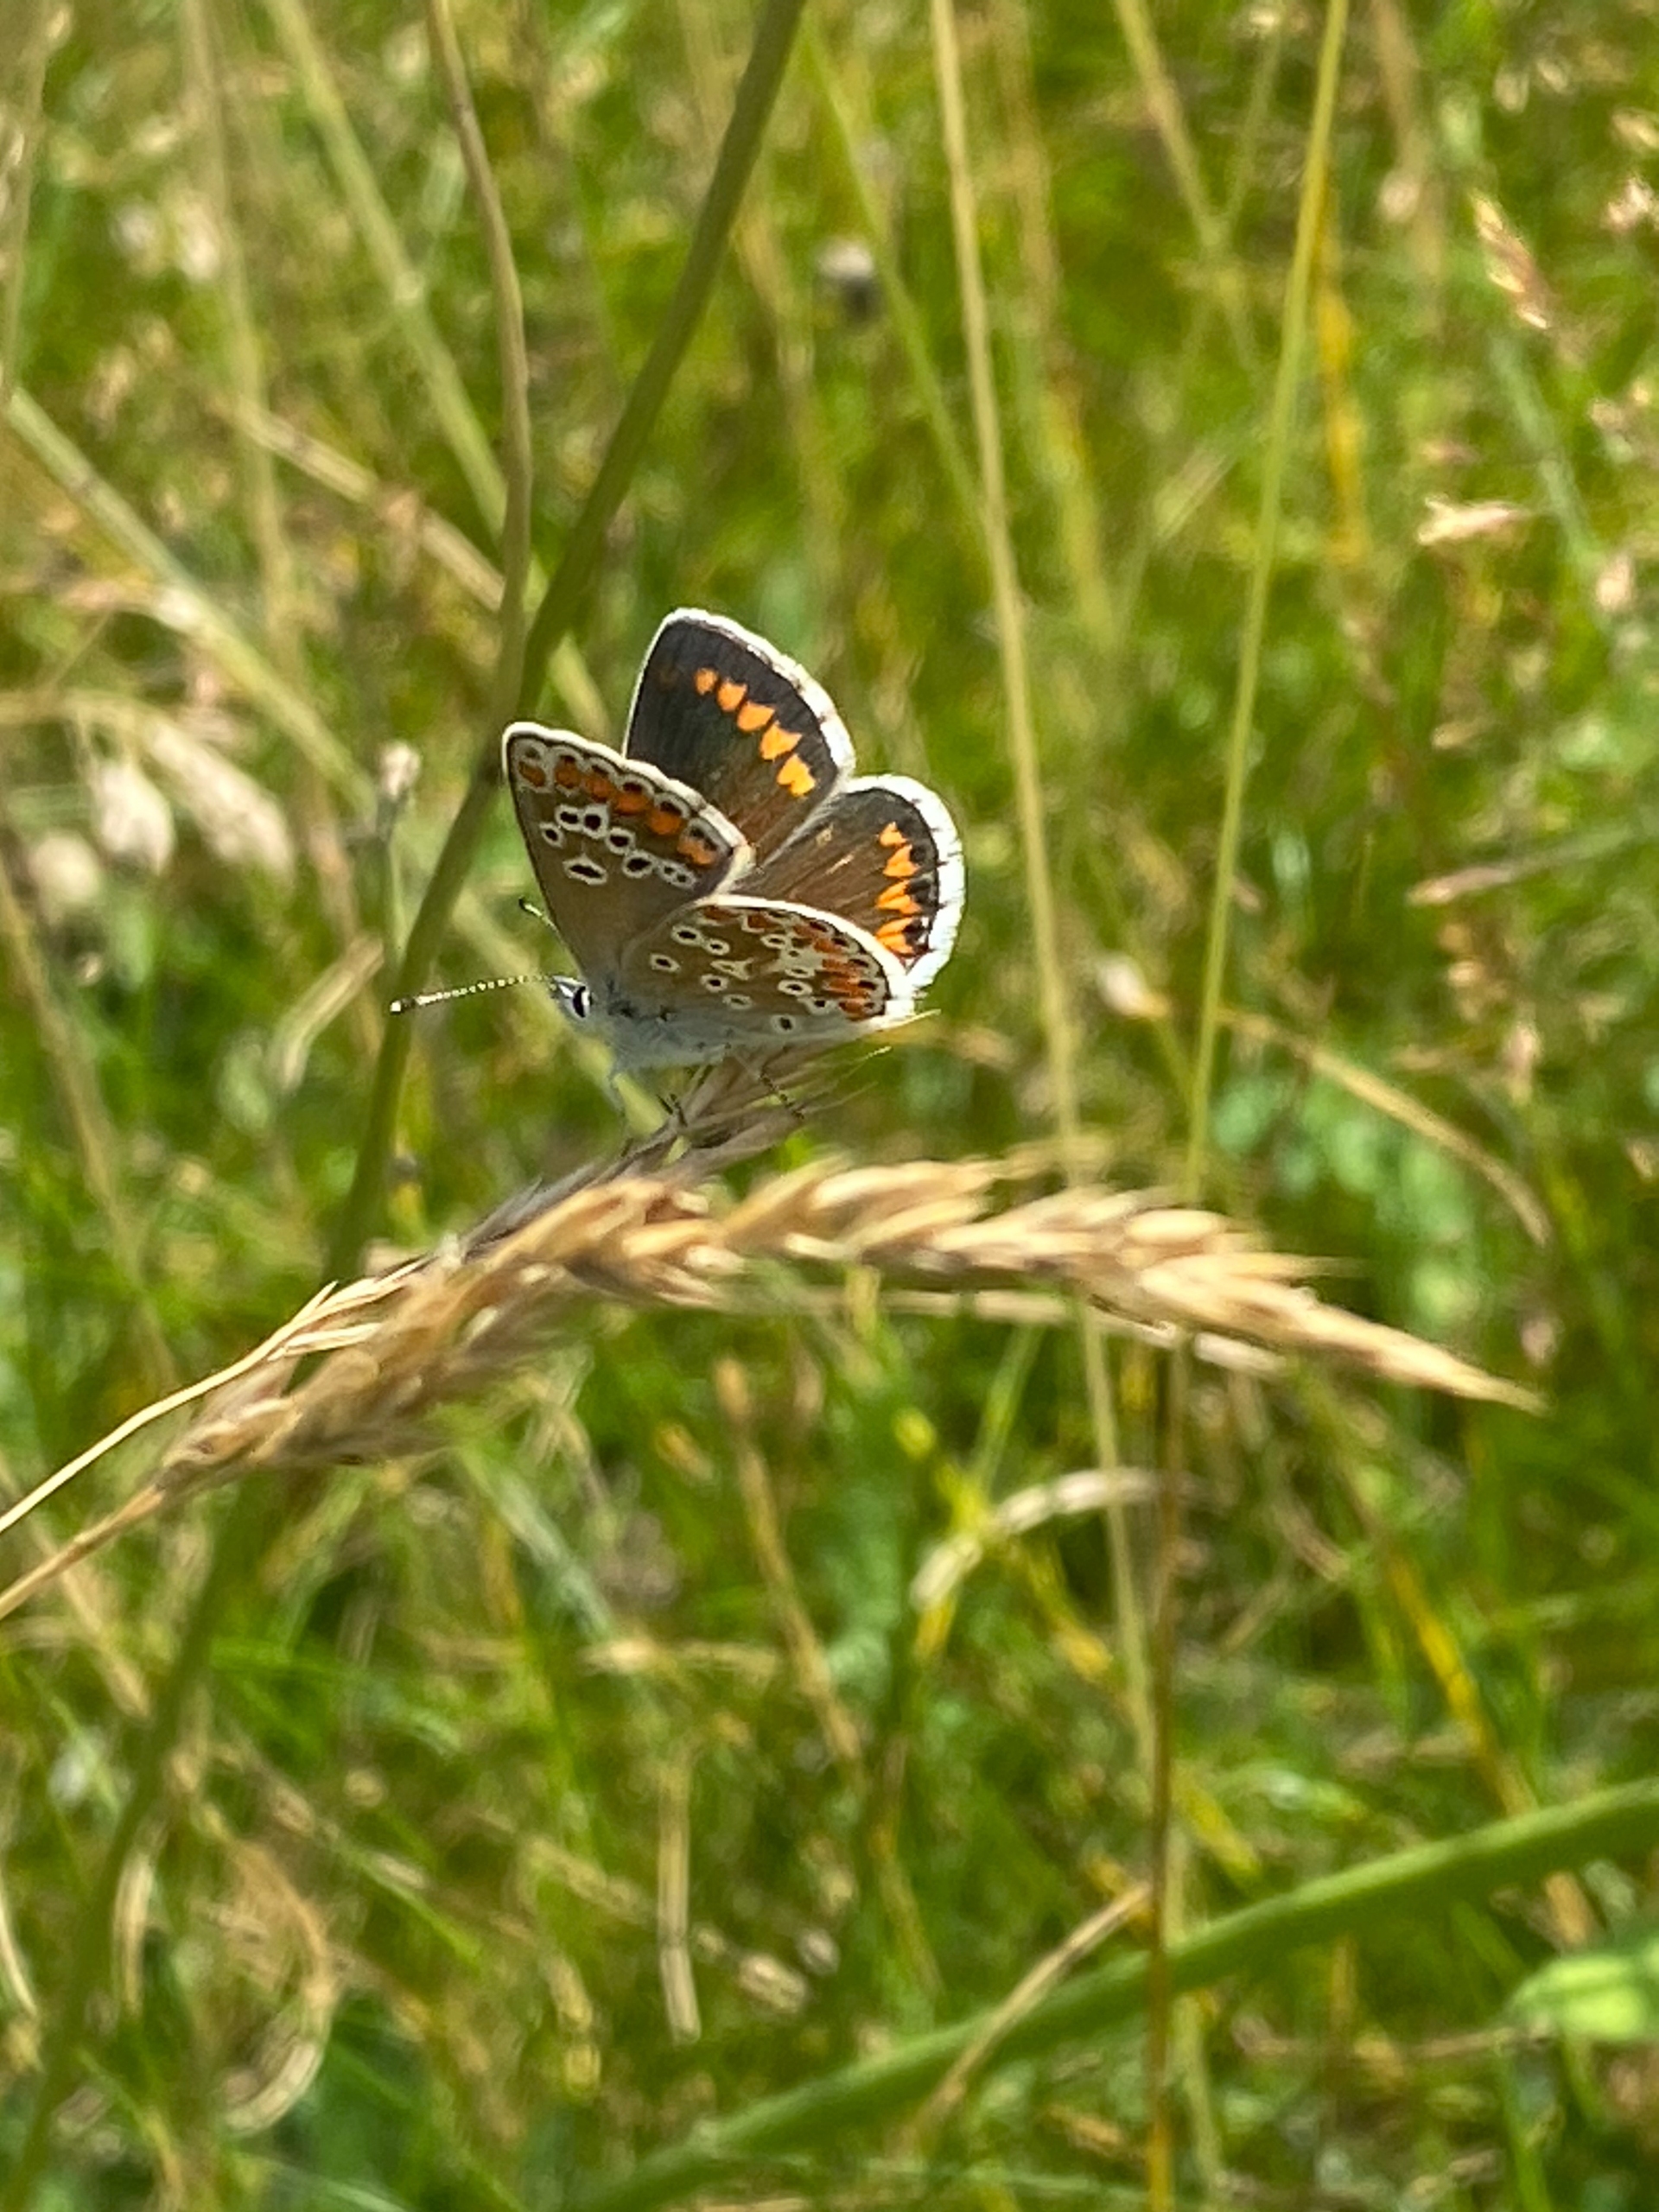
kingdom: Animalia
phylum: Arthropoda
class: Insecta
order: Lepidoptera
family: Lycaenidae
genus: Aricia
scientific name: Aricia agestis
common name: Rødplettet blåfugl
